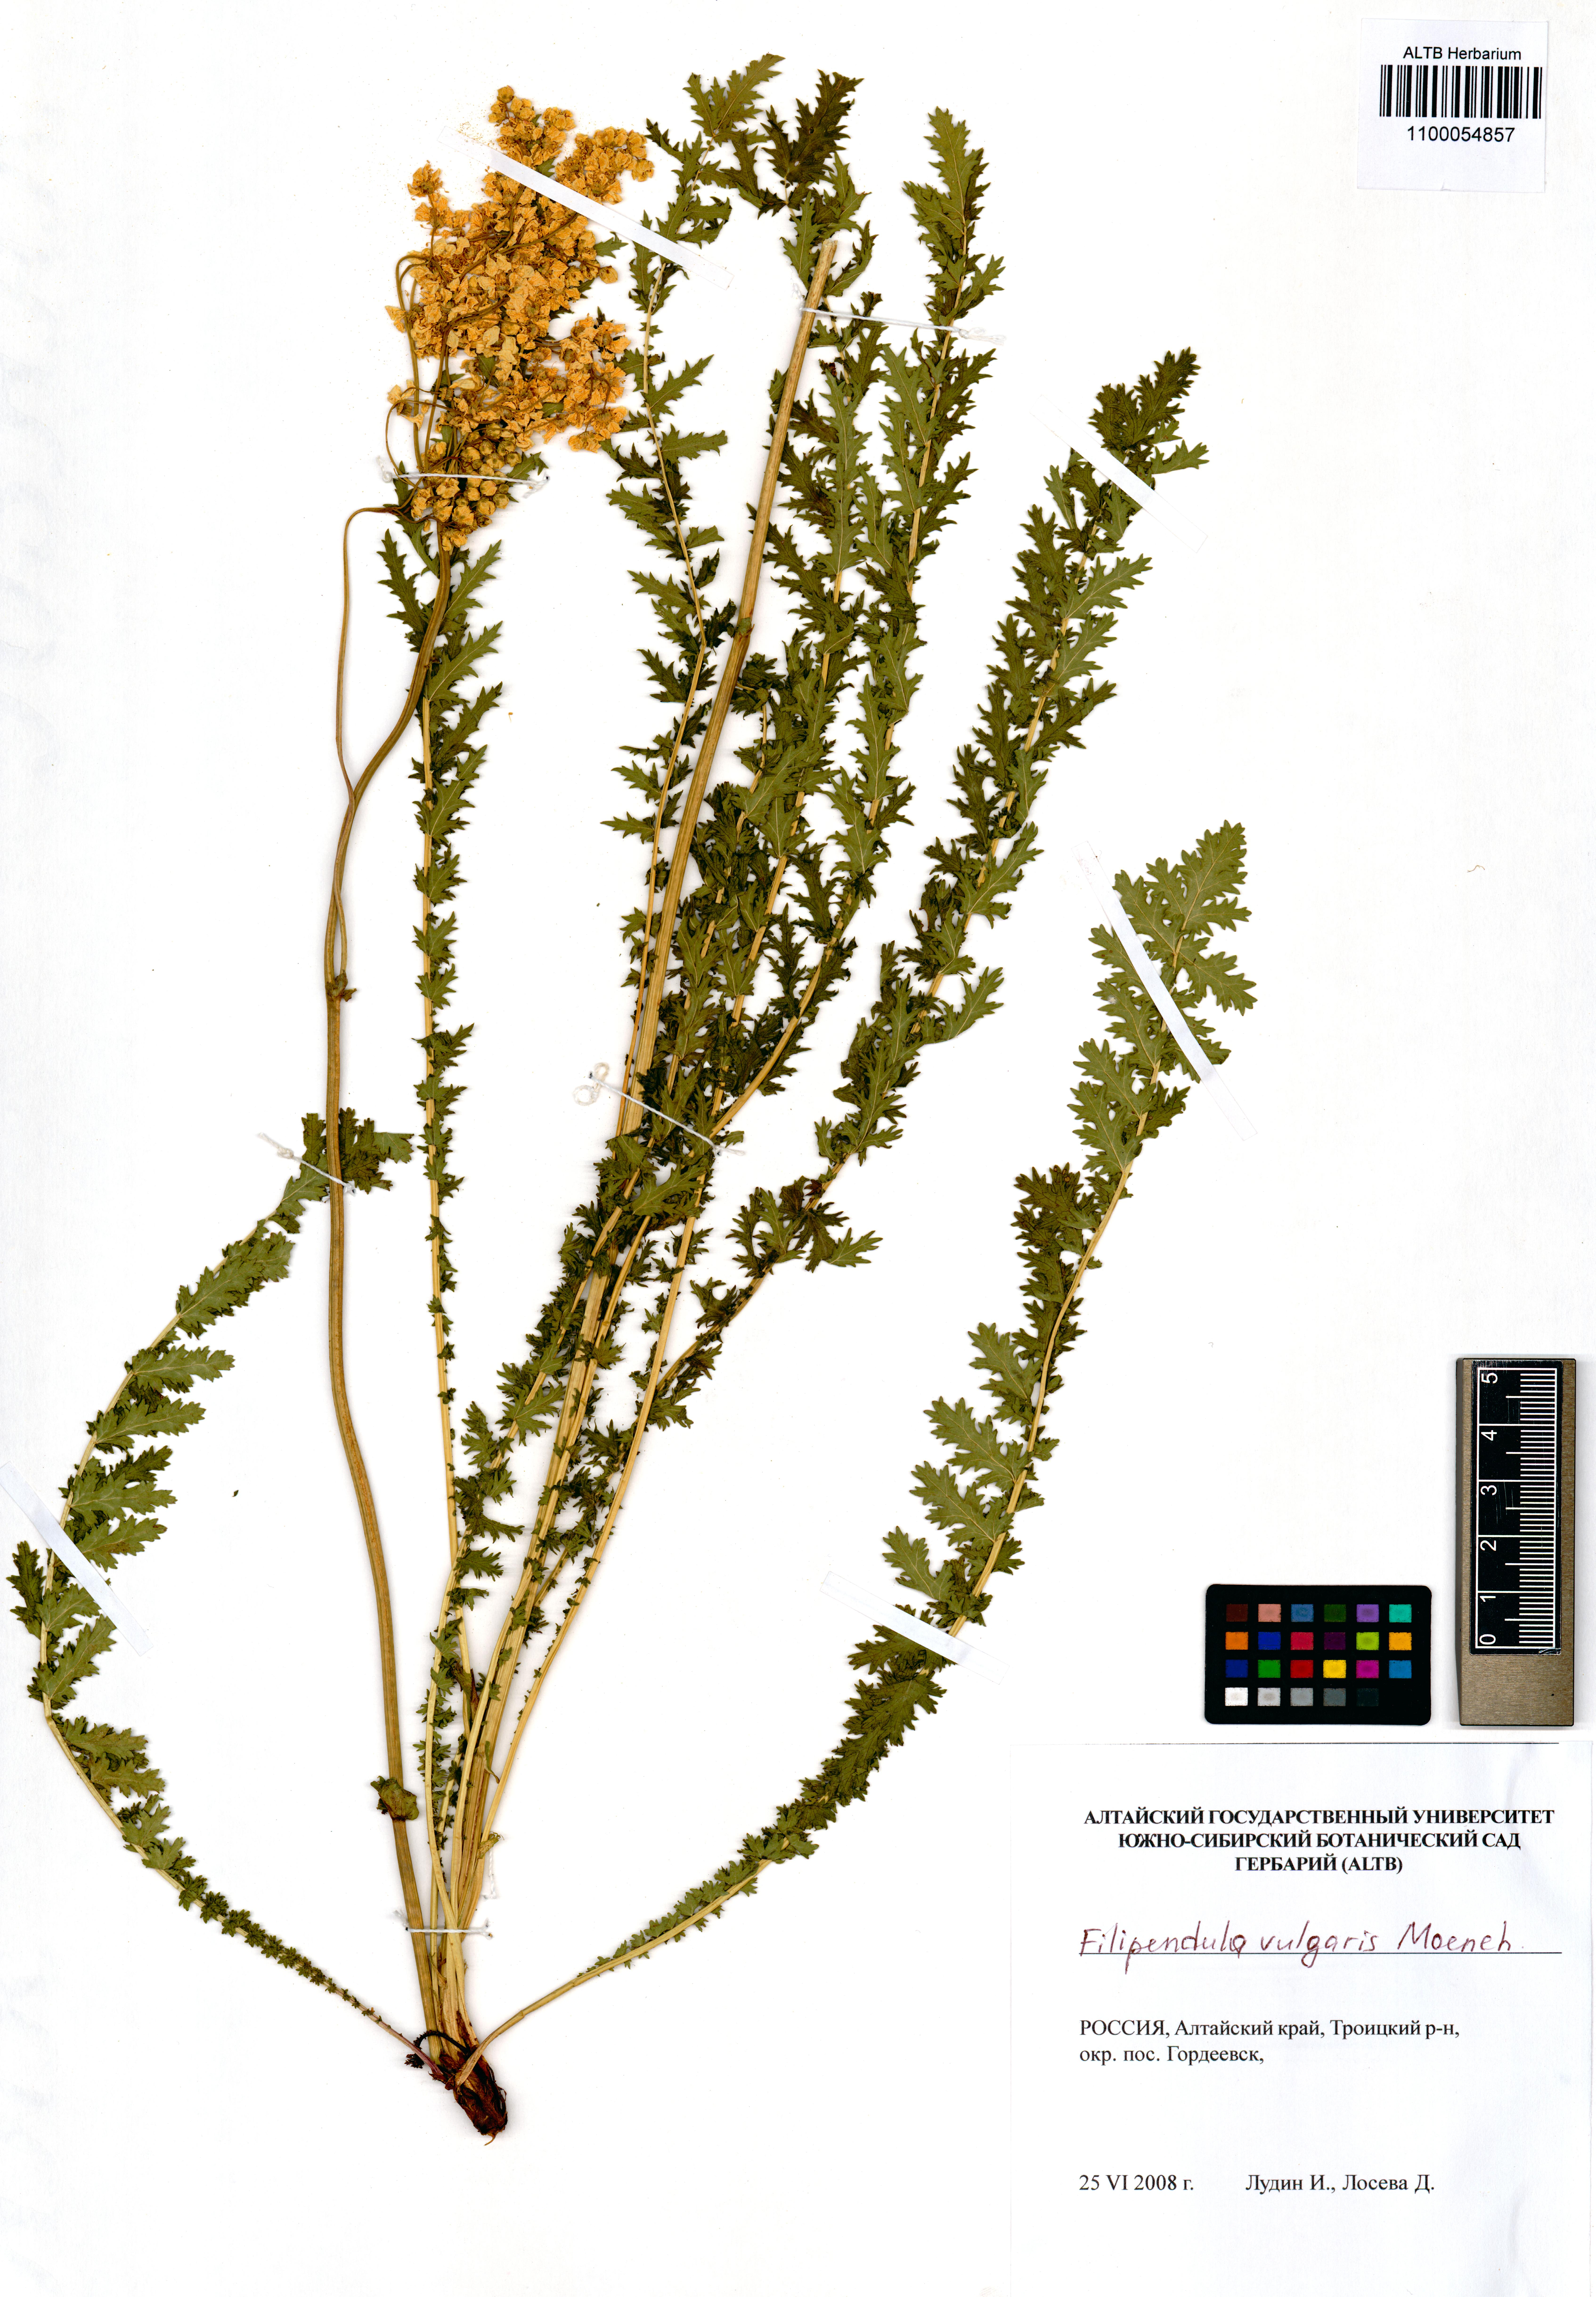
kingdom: Plantae
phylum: Tracheophyta
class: Magnoliopsida
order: Rosales
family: Rosaceae
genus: Filipendula
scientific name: Filipendula vulgaris
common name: Dropwort
